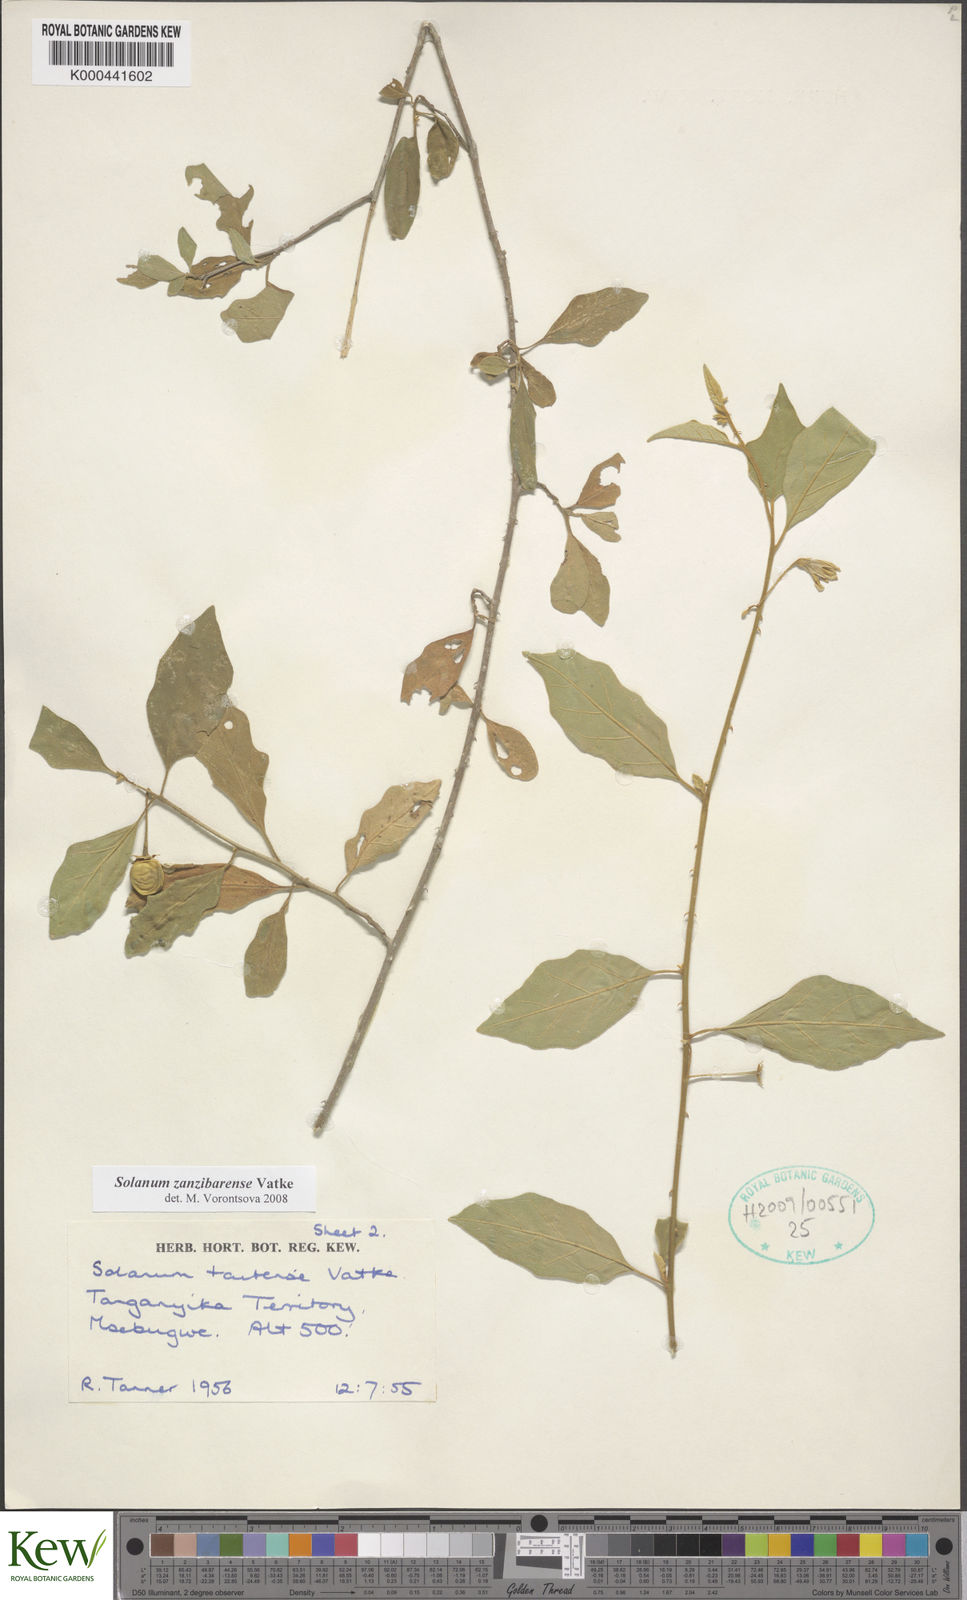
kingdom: Plantae
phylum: Tracheophyta
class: Magnoliopsida
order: Solanales
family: Solanaceae
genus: Solanum
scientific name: Solanum zanzibarense
